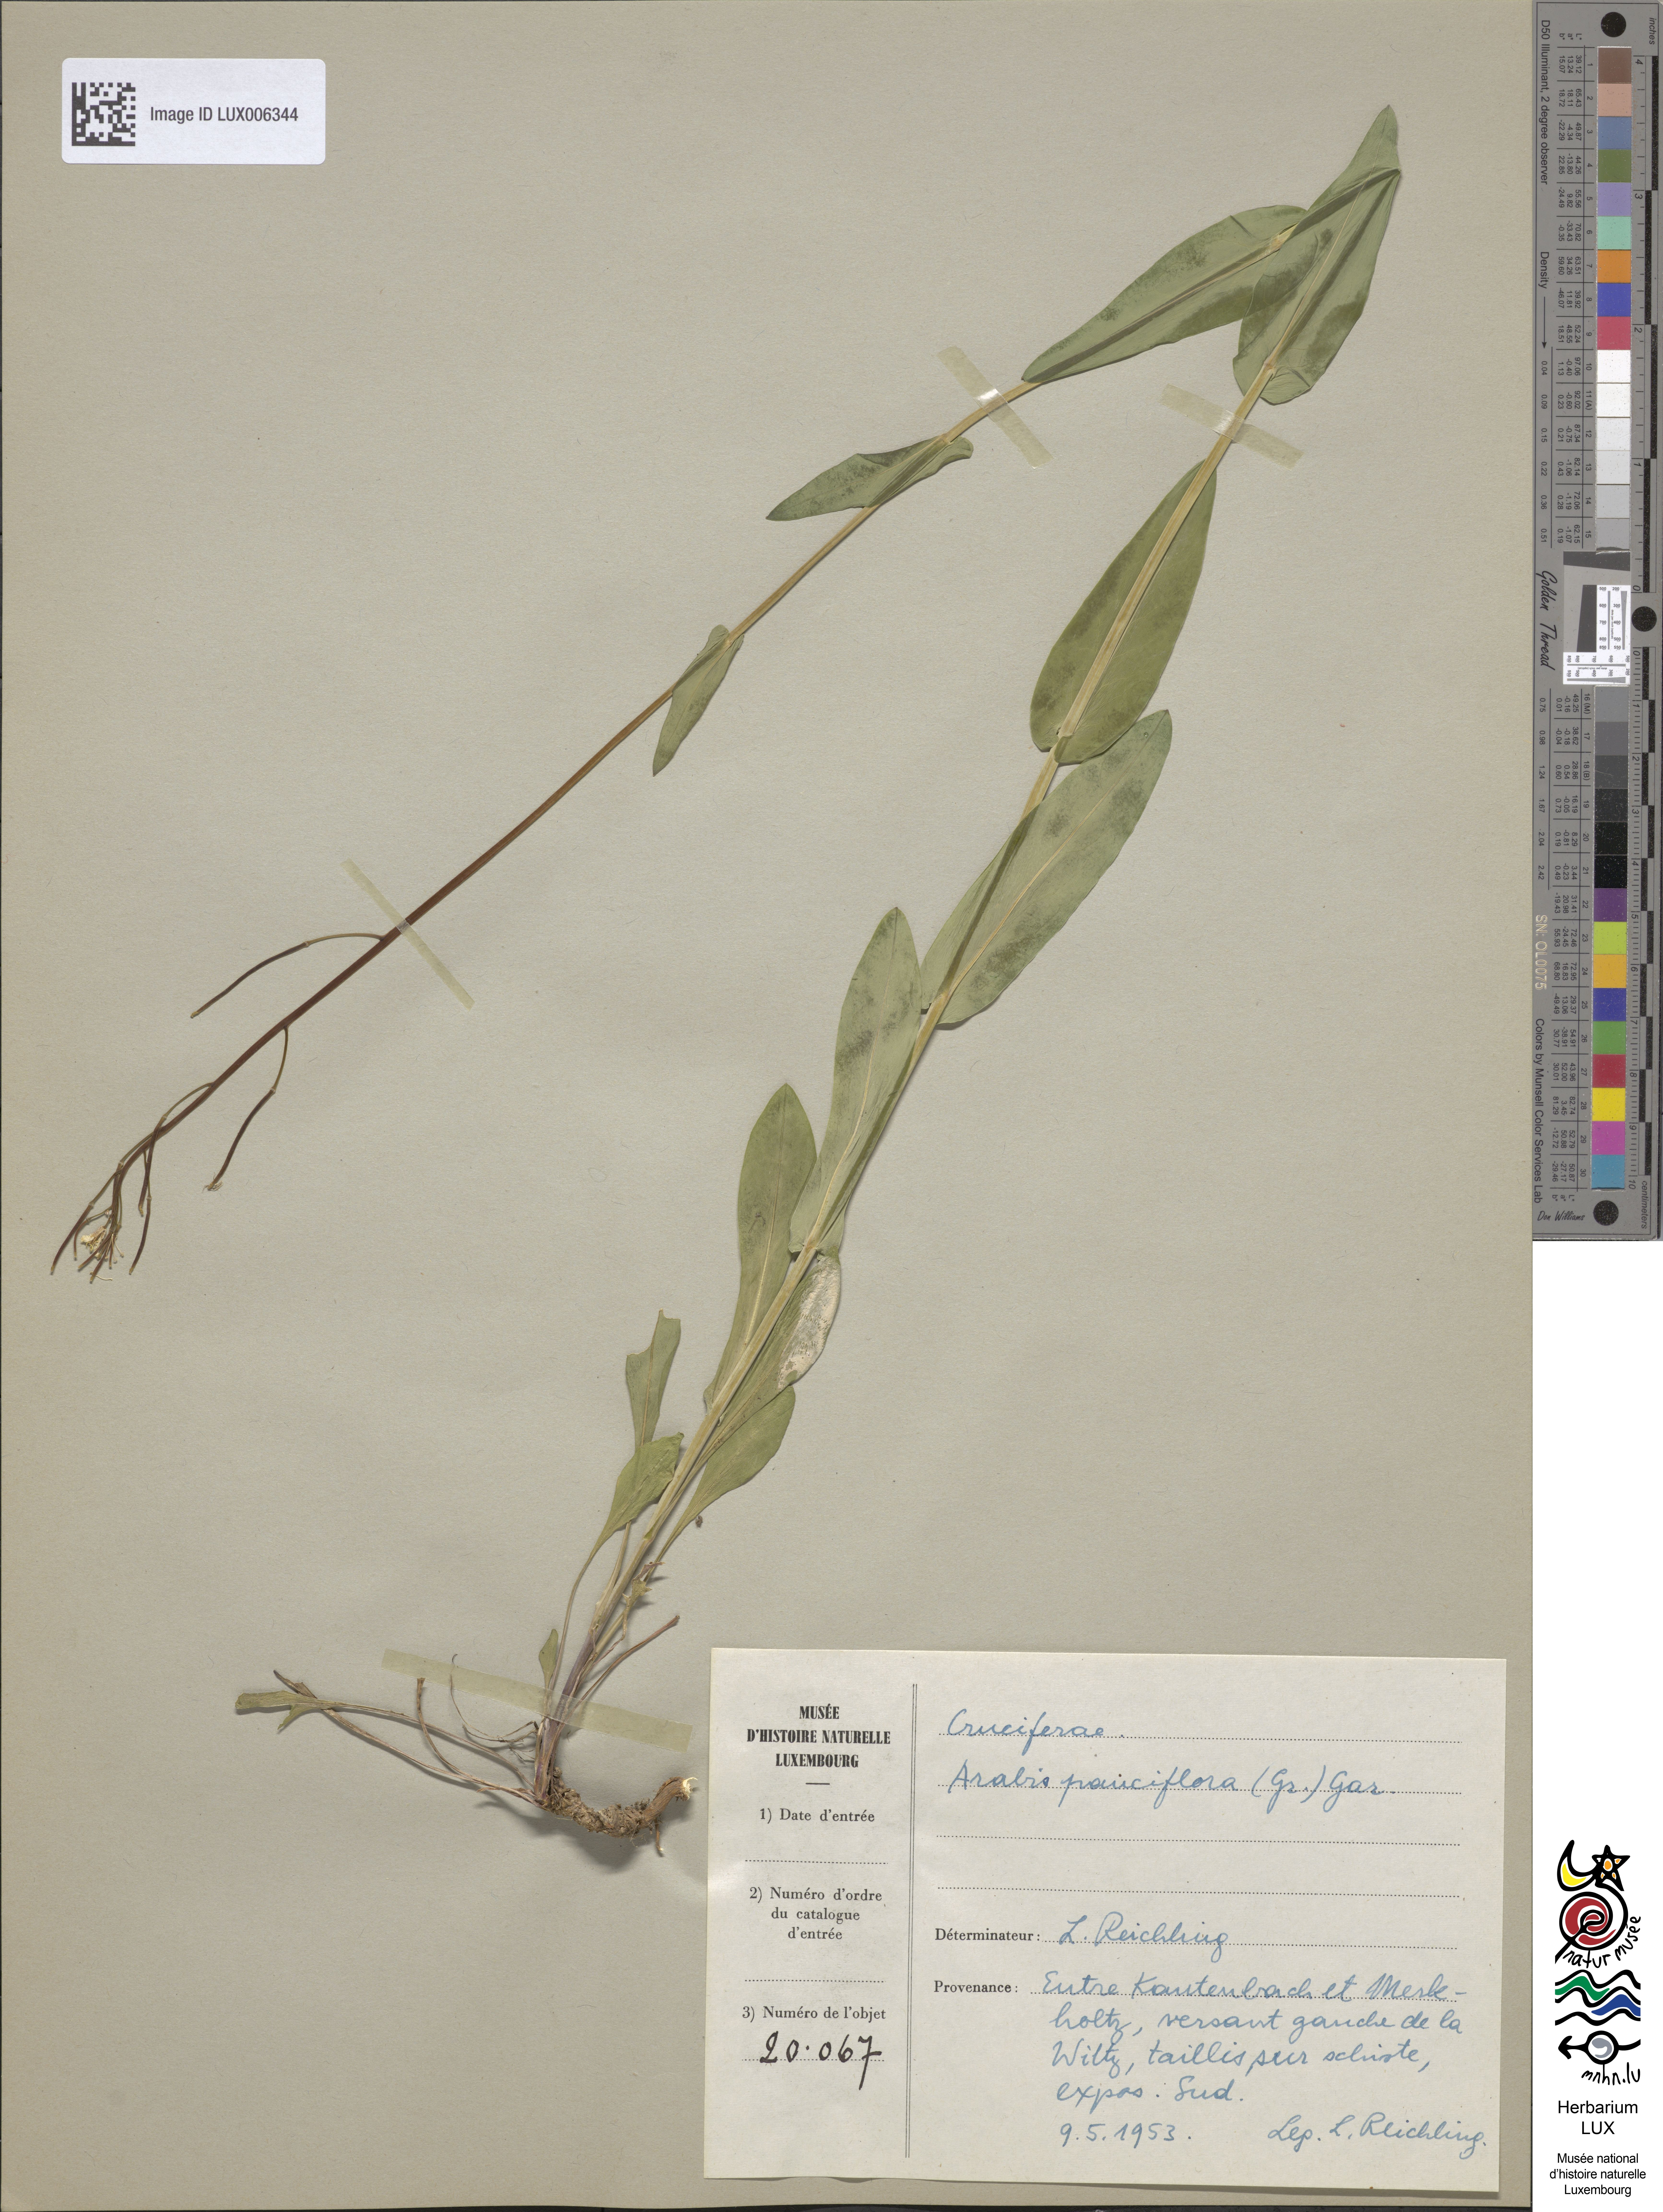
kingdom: Plantae
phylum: Tracheophyta
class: Magnoliopsida
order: Brassicales
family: Brassicaceae
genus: Fourraea
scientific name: Fourraea alpina
